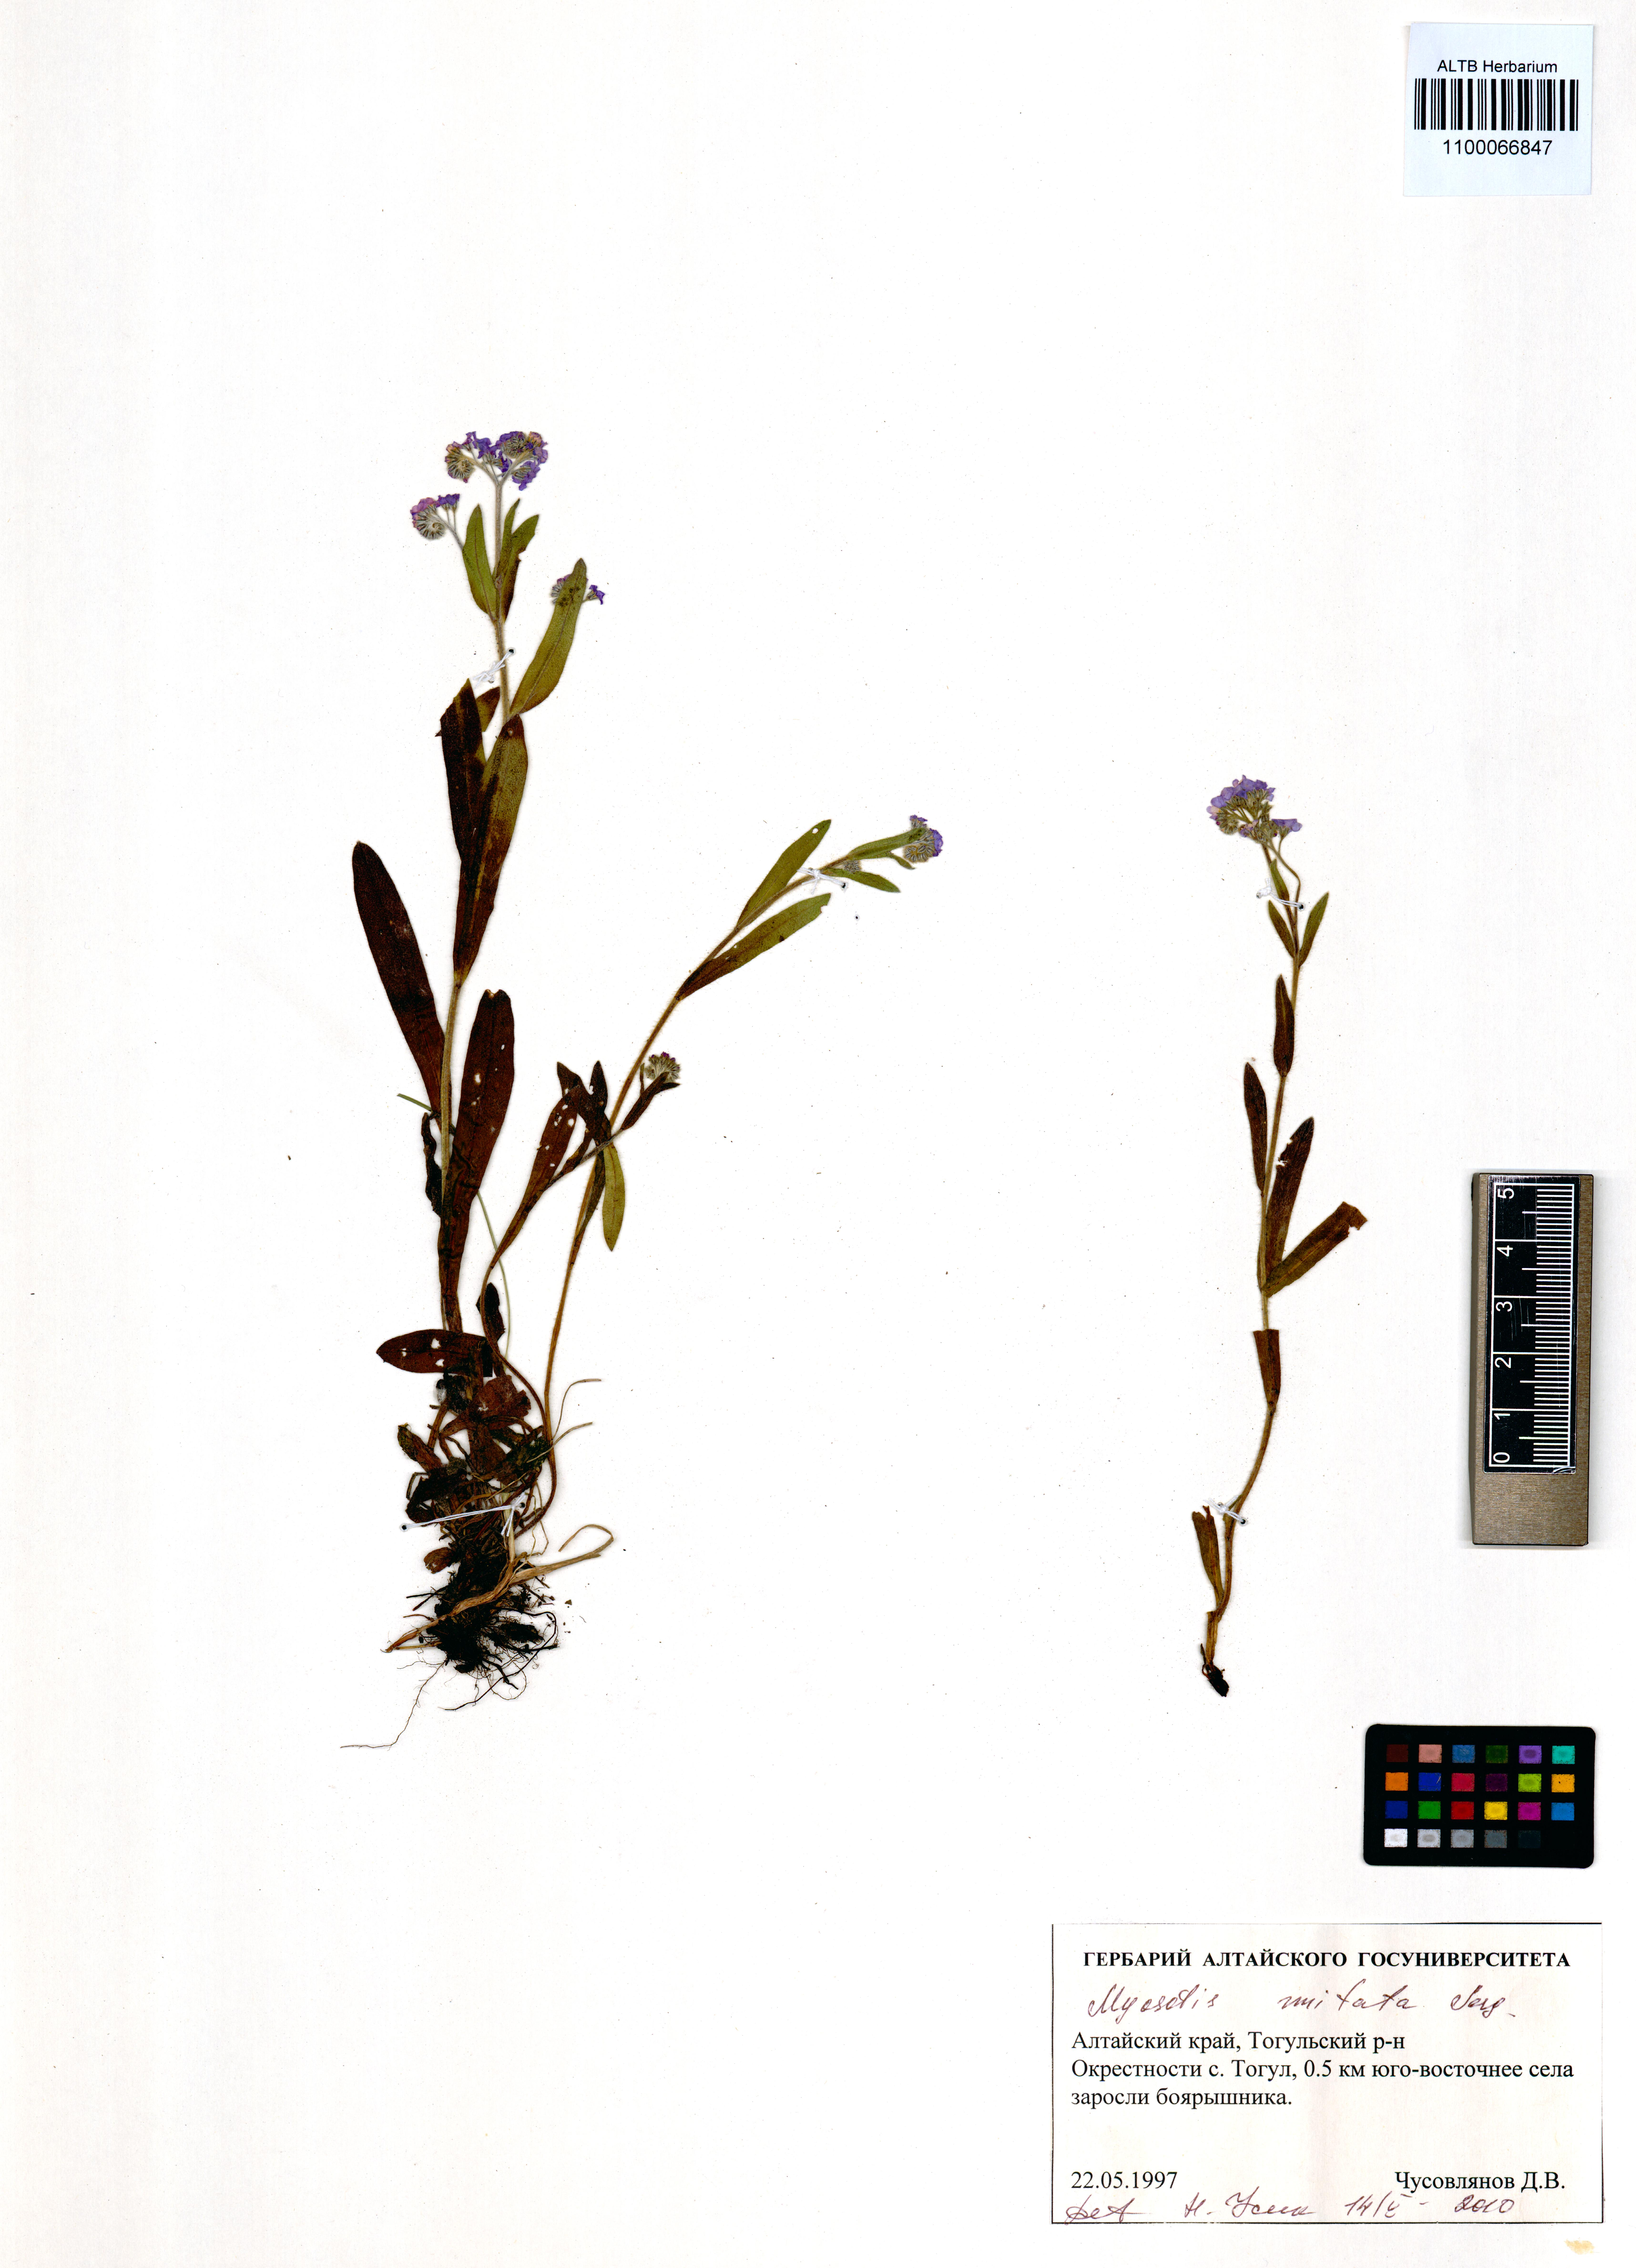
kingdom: Plantae
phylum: Tracheophyta
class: Magnoliopsida
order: Boraginales
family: Boraginaceae
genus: Myosotis
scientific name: Myosotis imitata
